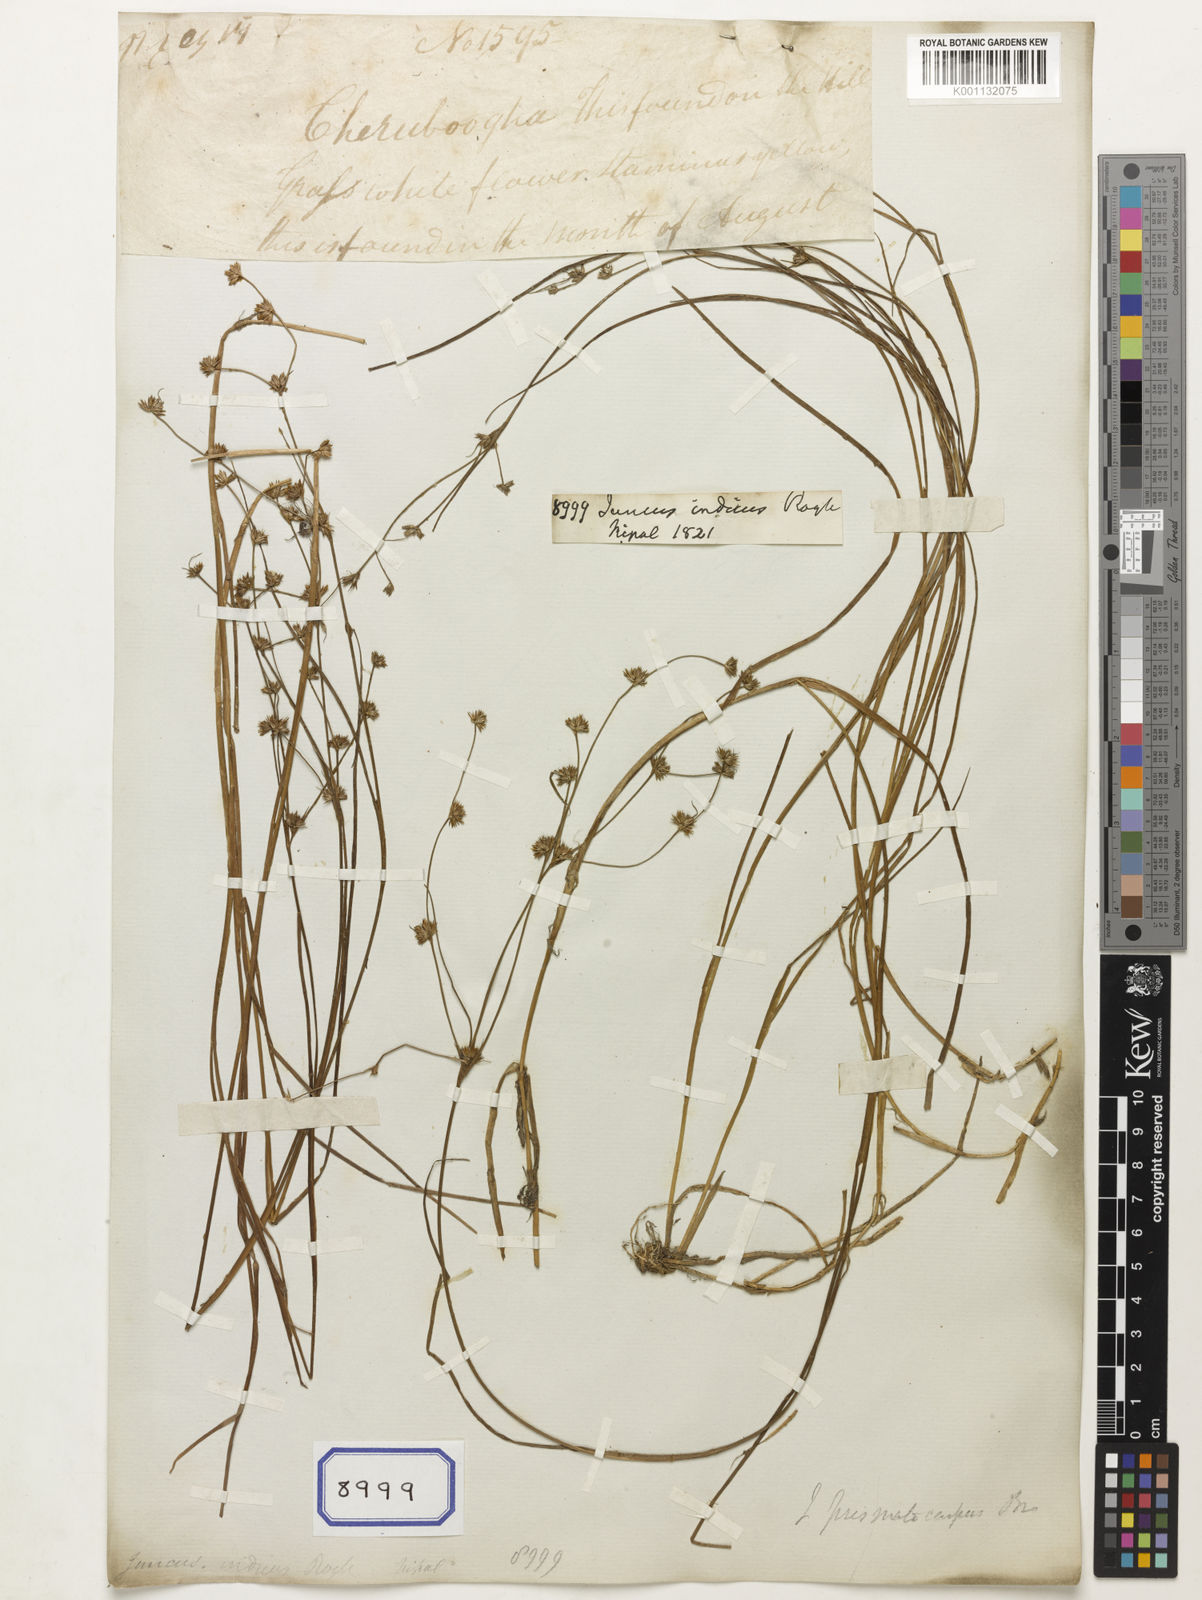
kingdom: Plantae
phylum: Tracheophyta
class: Liliopsida
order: Poales
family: Juncaceae
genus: Juncus
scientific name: Juncus wallichianus
